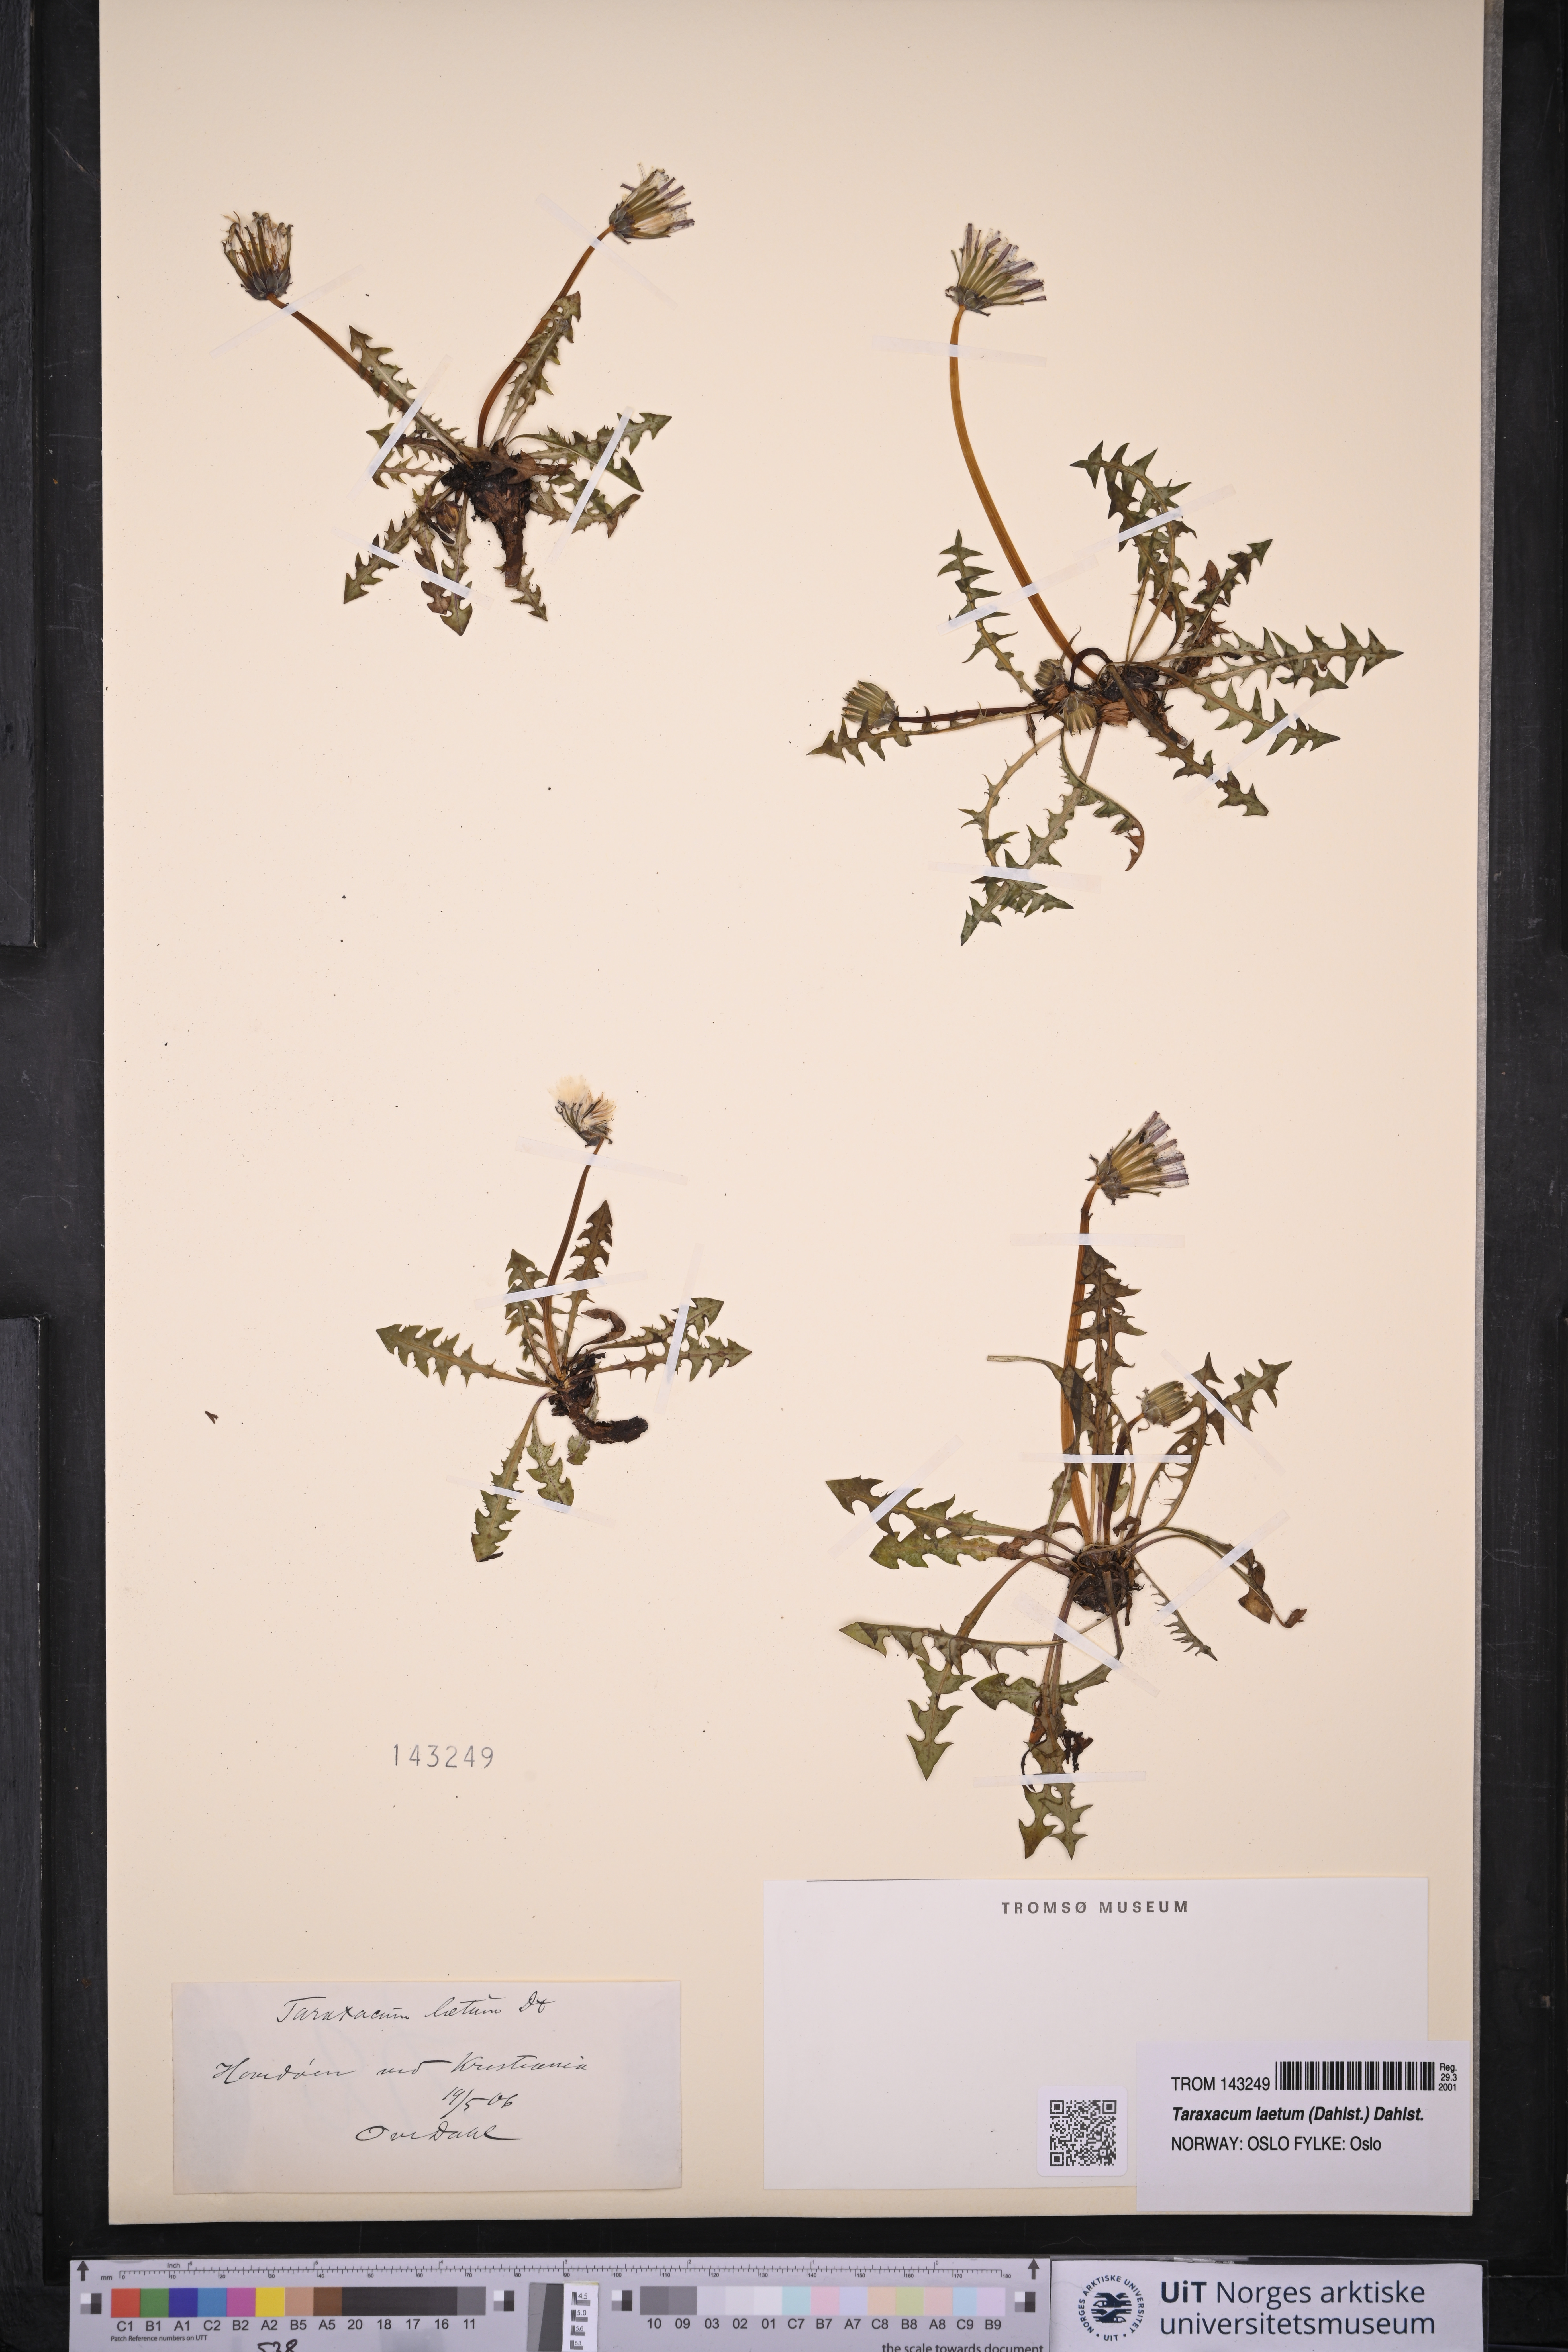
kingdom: Plantae
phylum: Tracheophyta
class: Magnoliopsida
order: Asterales
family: Asteraceae
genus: Taraxacum
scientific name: Taraxacum laetum
